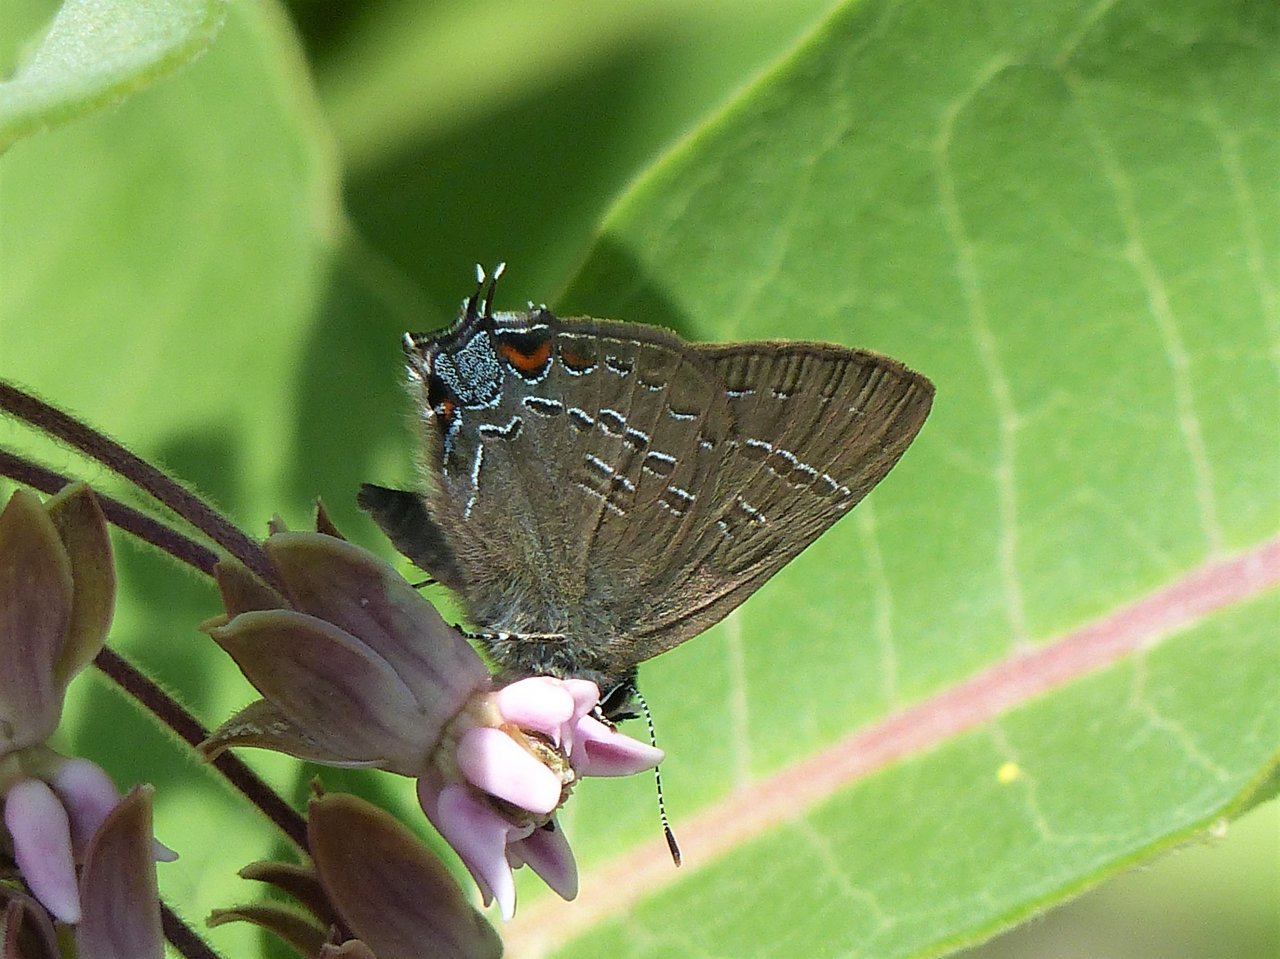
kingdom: Animalia
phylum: Arthropoda
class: Insecta
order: Lepidoptera
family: Lycaenidae
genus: Satyrium
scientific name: Satyrium calanus
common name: Banded Hairstreak
